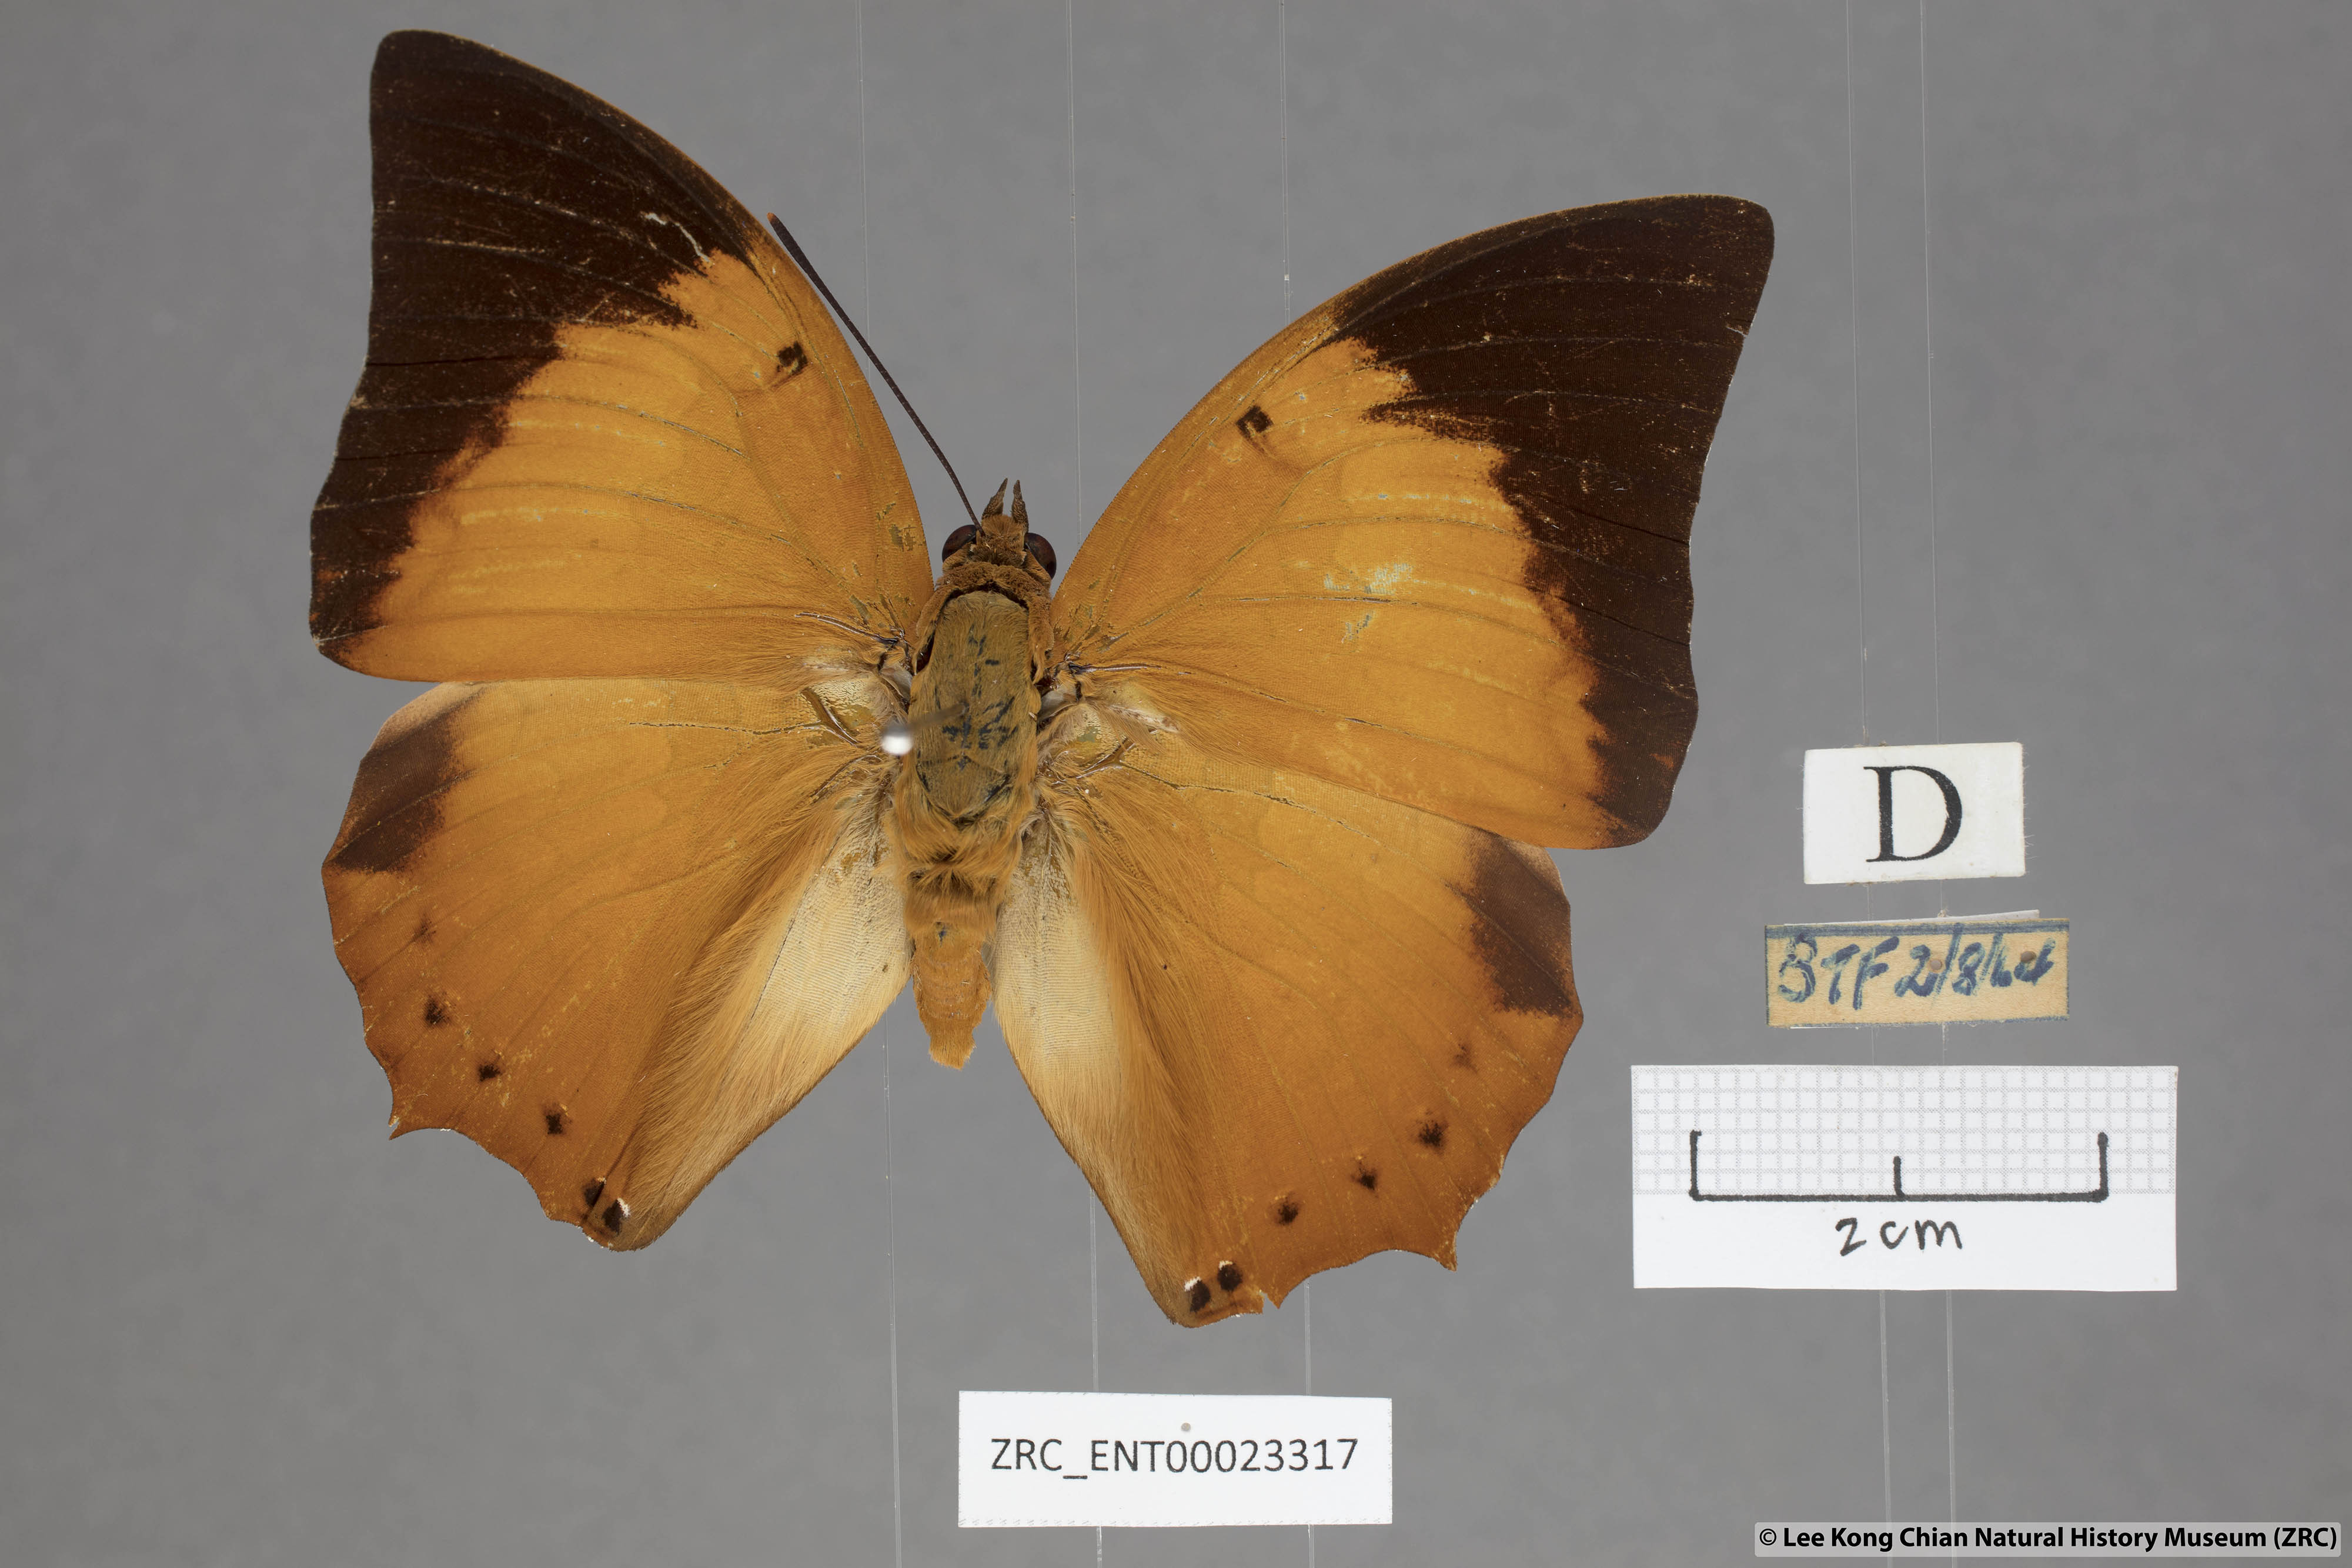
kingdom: Animalia
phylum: Arthropoda
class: Insecta
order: Lepidoptera
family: Nymphalidae
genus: Charaxes
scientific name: Charaxes bernardus
